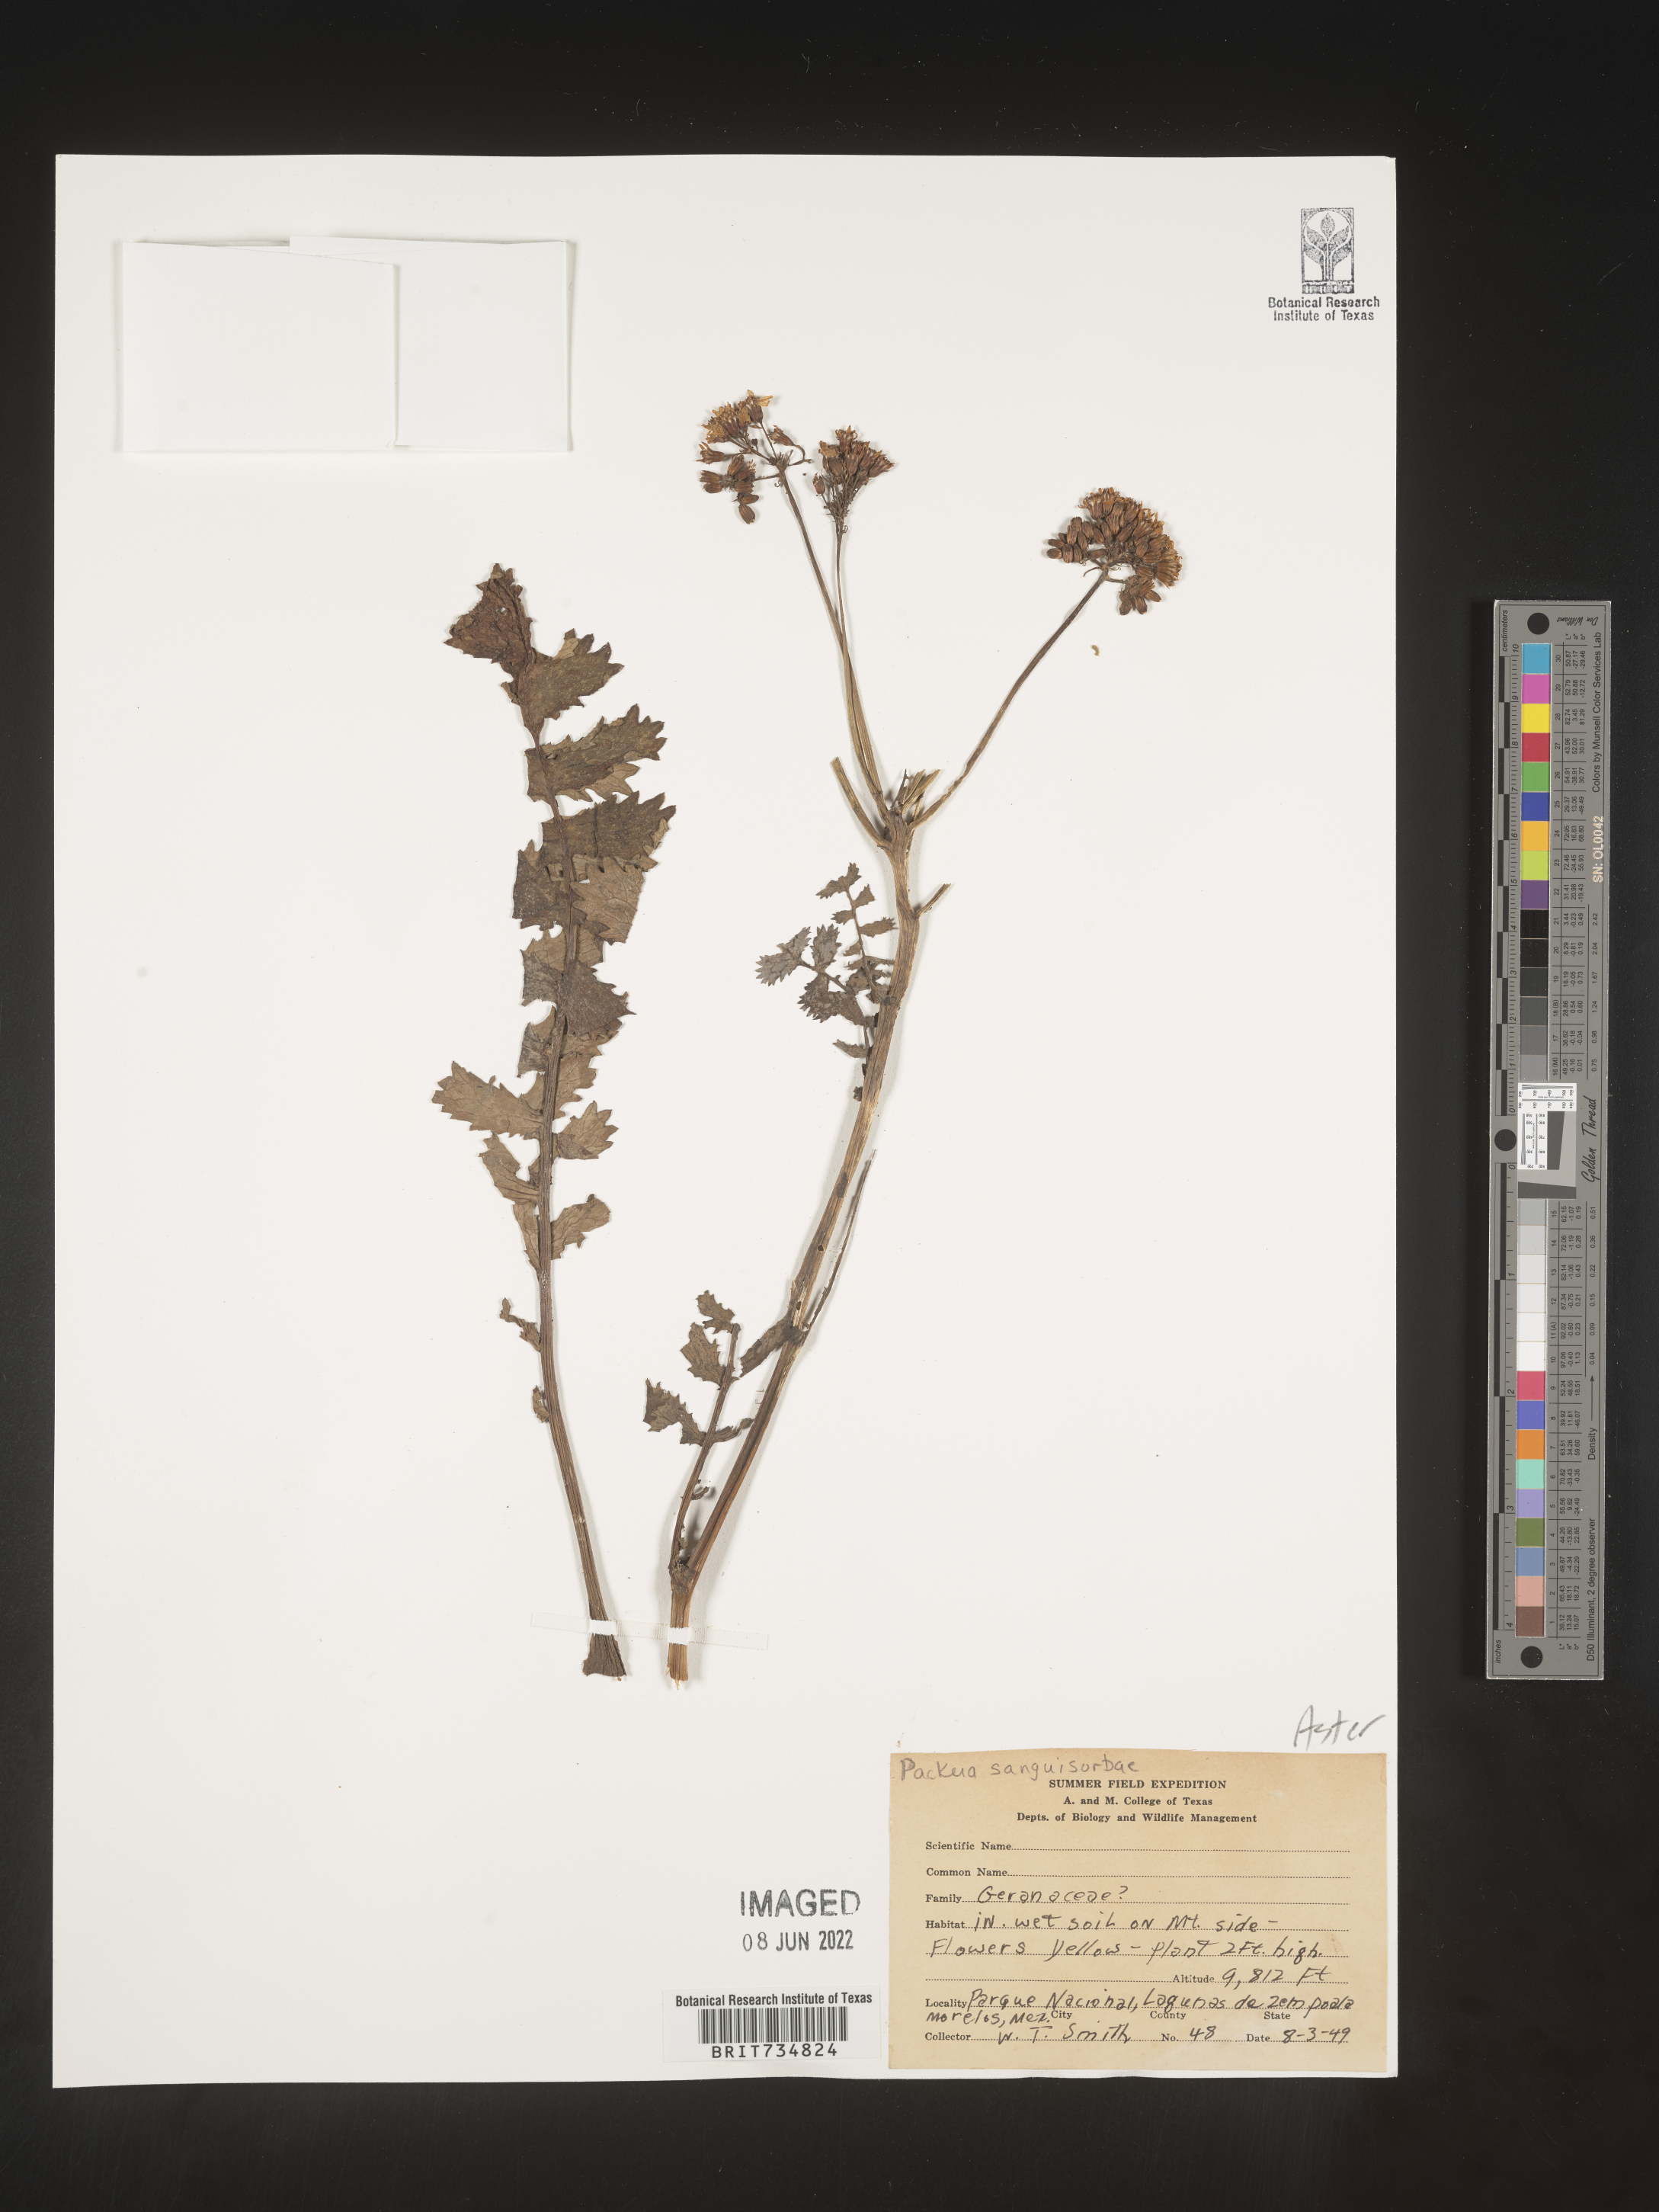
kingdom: Plantae
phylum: Tracheophyta
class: Magnoliopsida
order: Asterales
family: Asteraceae
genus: Packera
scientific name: Packera
